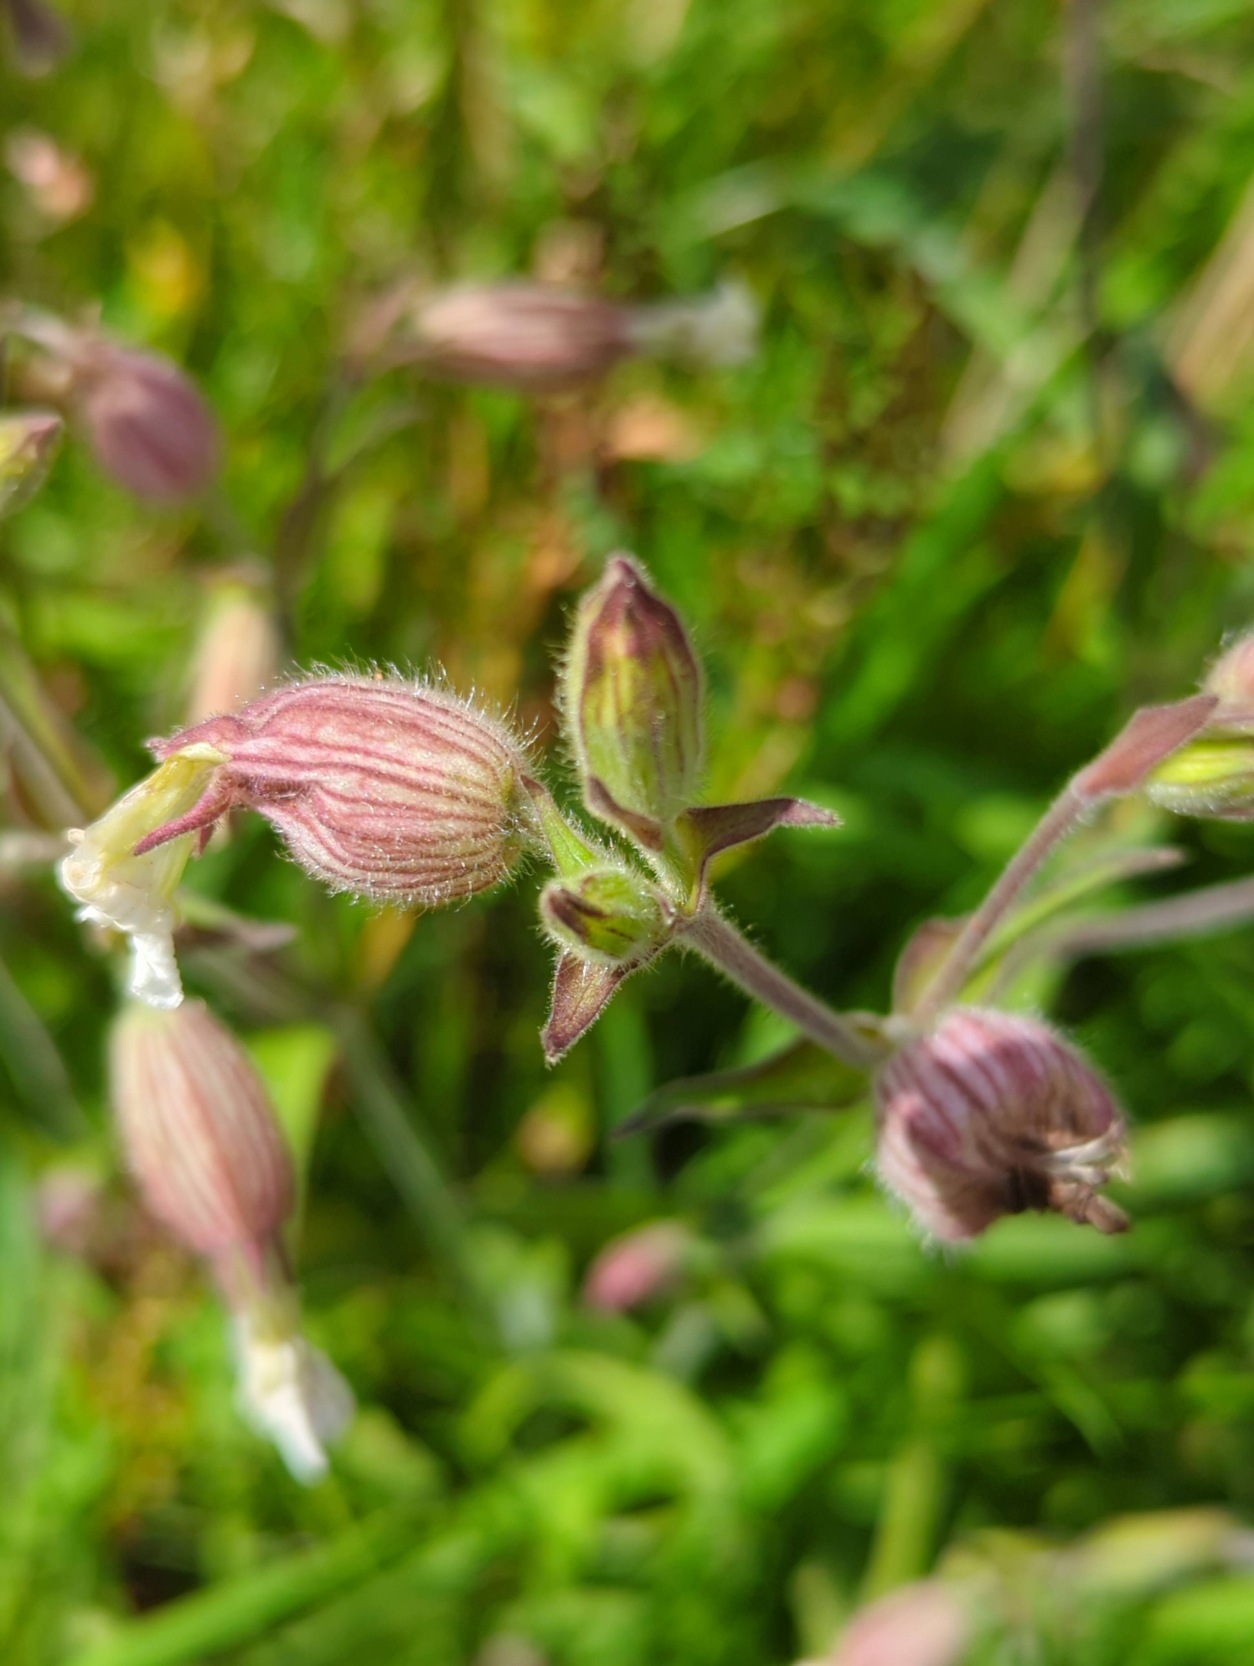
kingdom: Plantae
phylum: Tracheophyta
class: Magnoliopsida
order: Caryophyllales
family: Caryophyllaceae
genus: Silene
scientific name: Silene latifolia
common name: Aftenpragtstjerne
